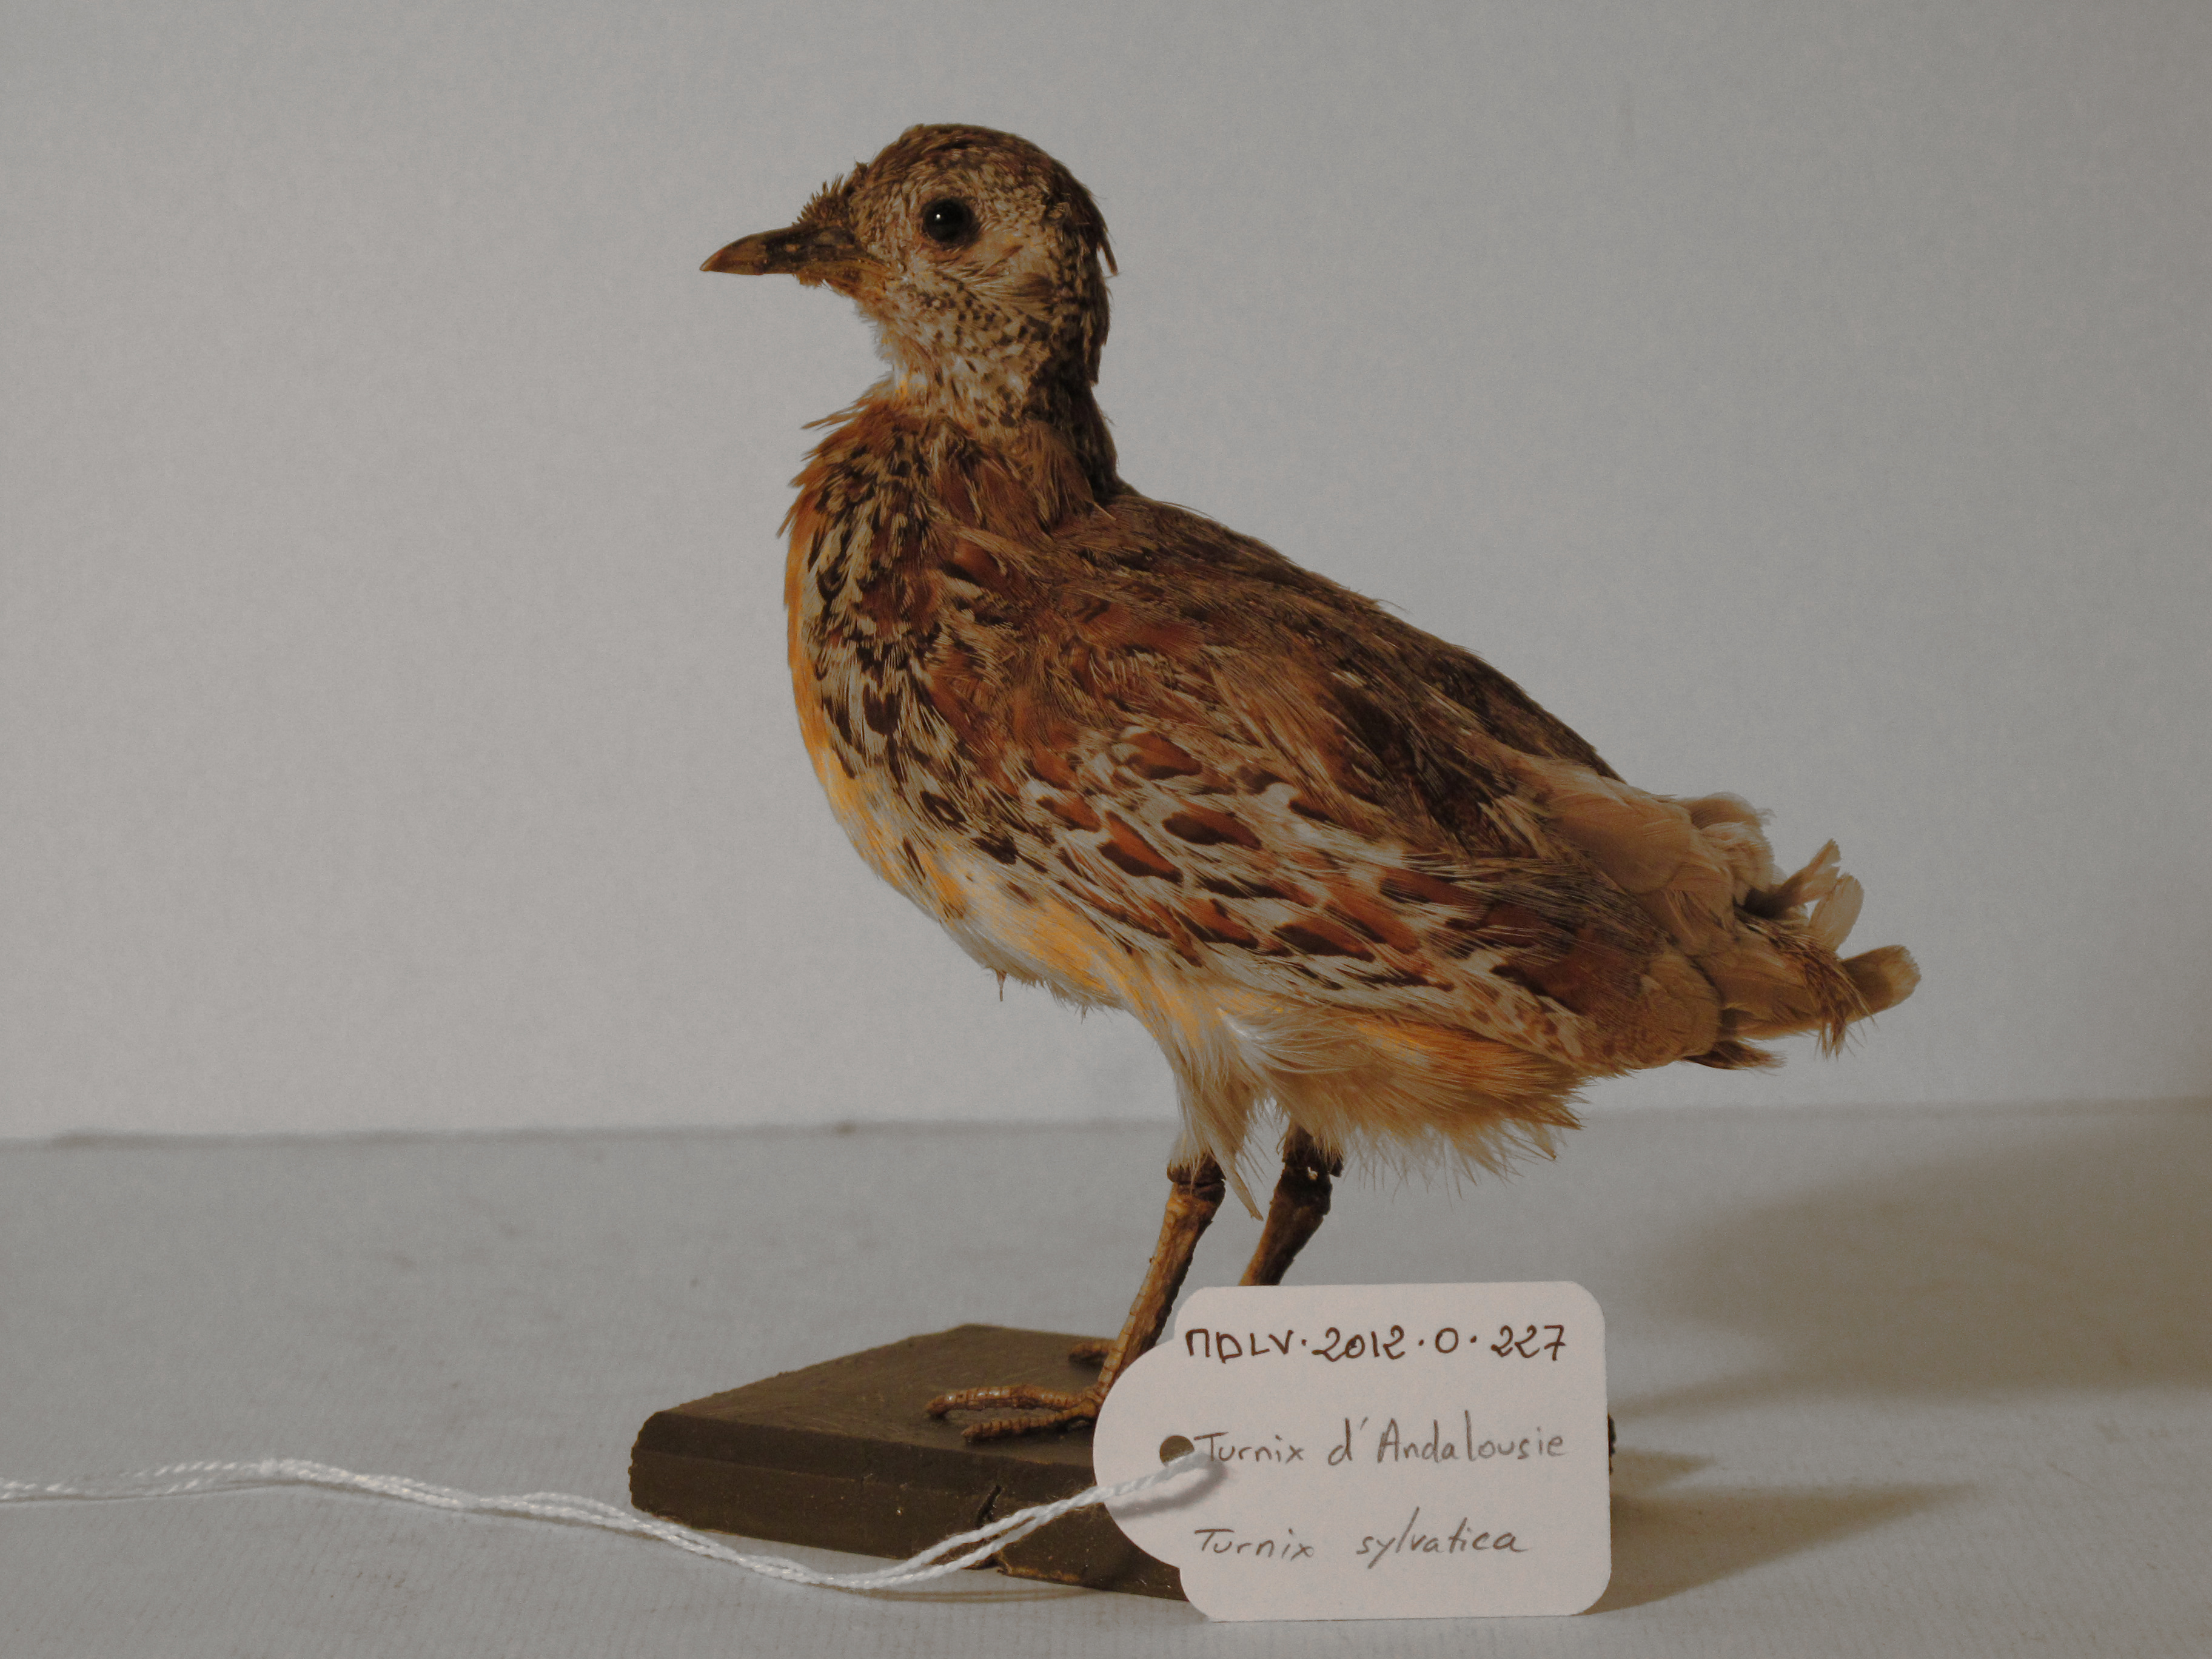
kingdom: Animalia
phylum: Chordata
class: Aves
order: Charadriiformes
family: Turnicidae
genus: Turnix
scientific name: Turnix sylvaticus
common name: Common Buttonquail
